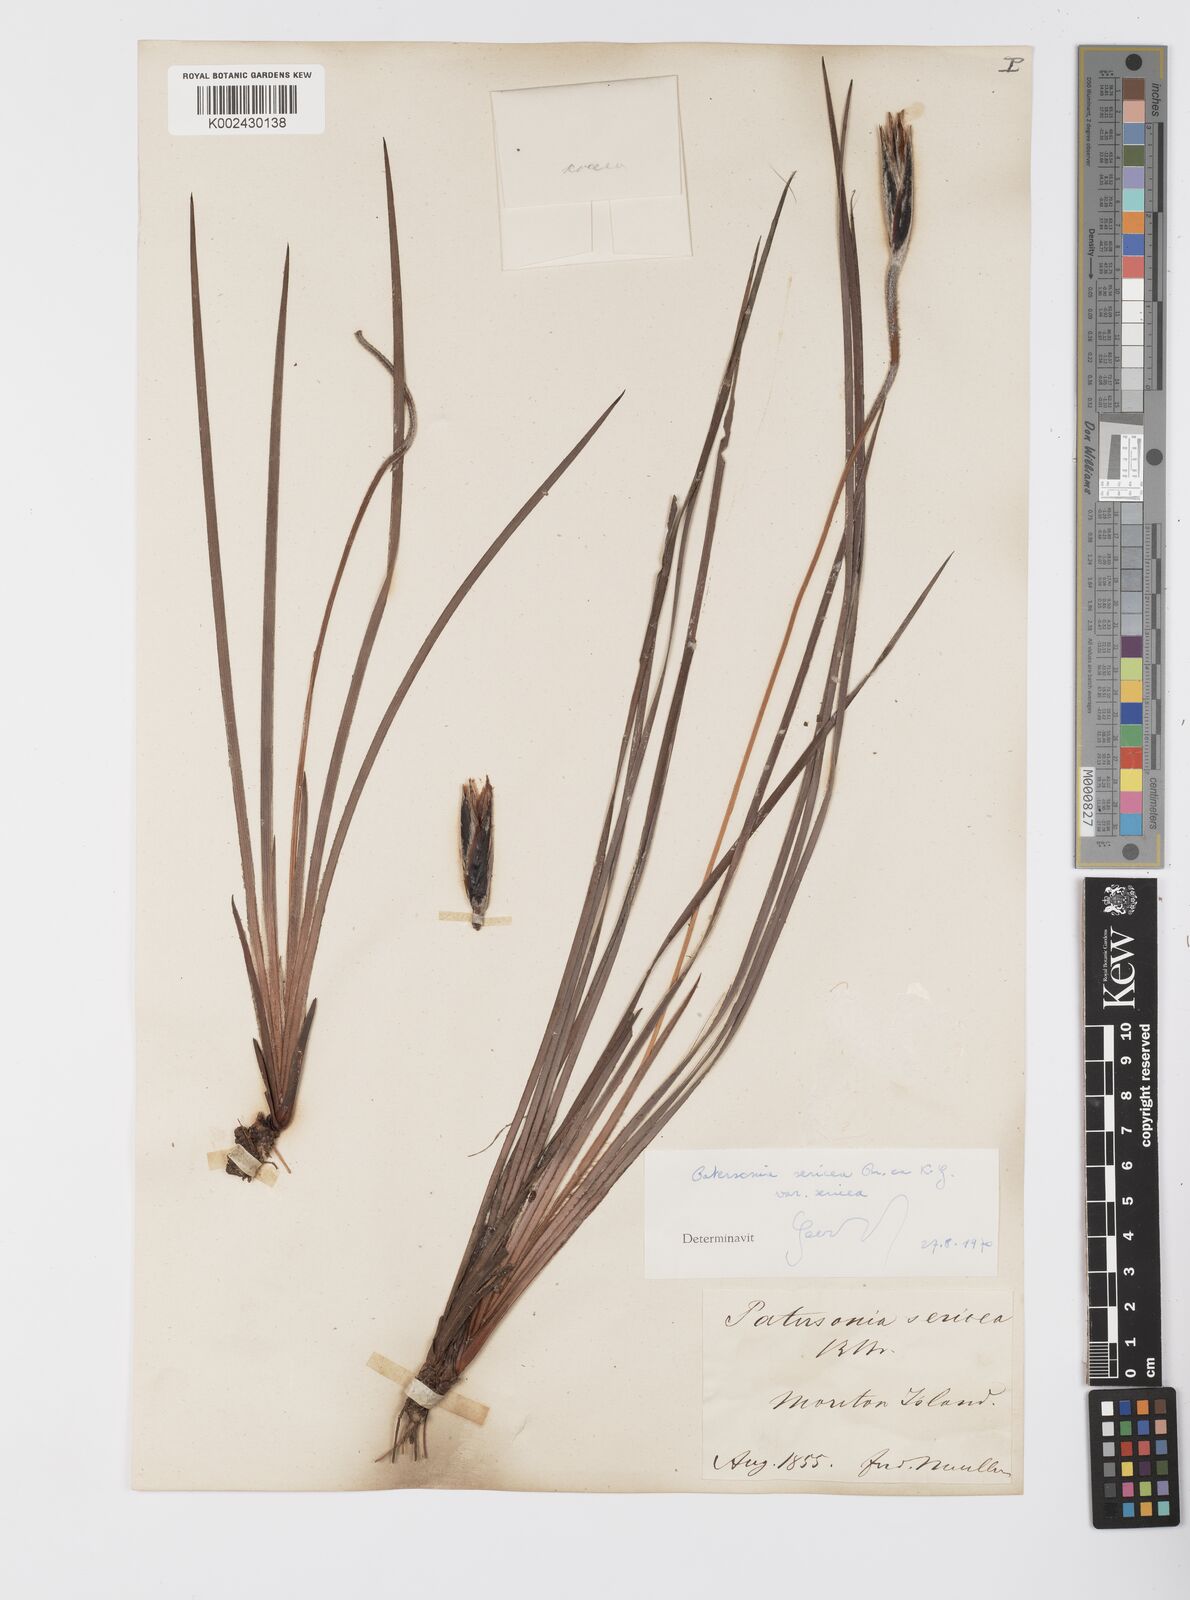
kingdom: Plantae
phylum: Tracheophyta
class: Liliopsida
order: Asparagales
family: Iridaceae
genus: Patersonia
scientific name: Patersonia sericea
